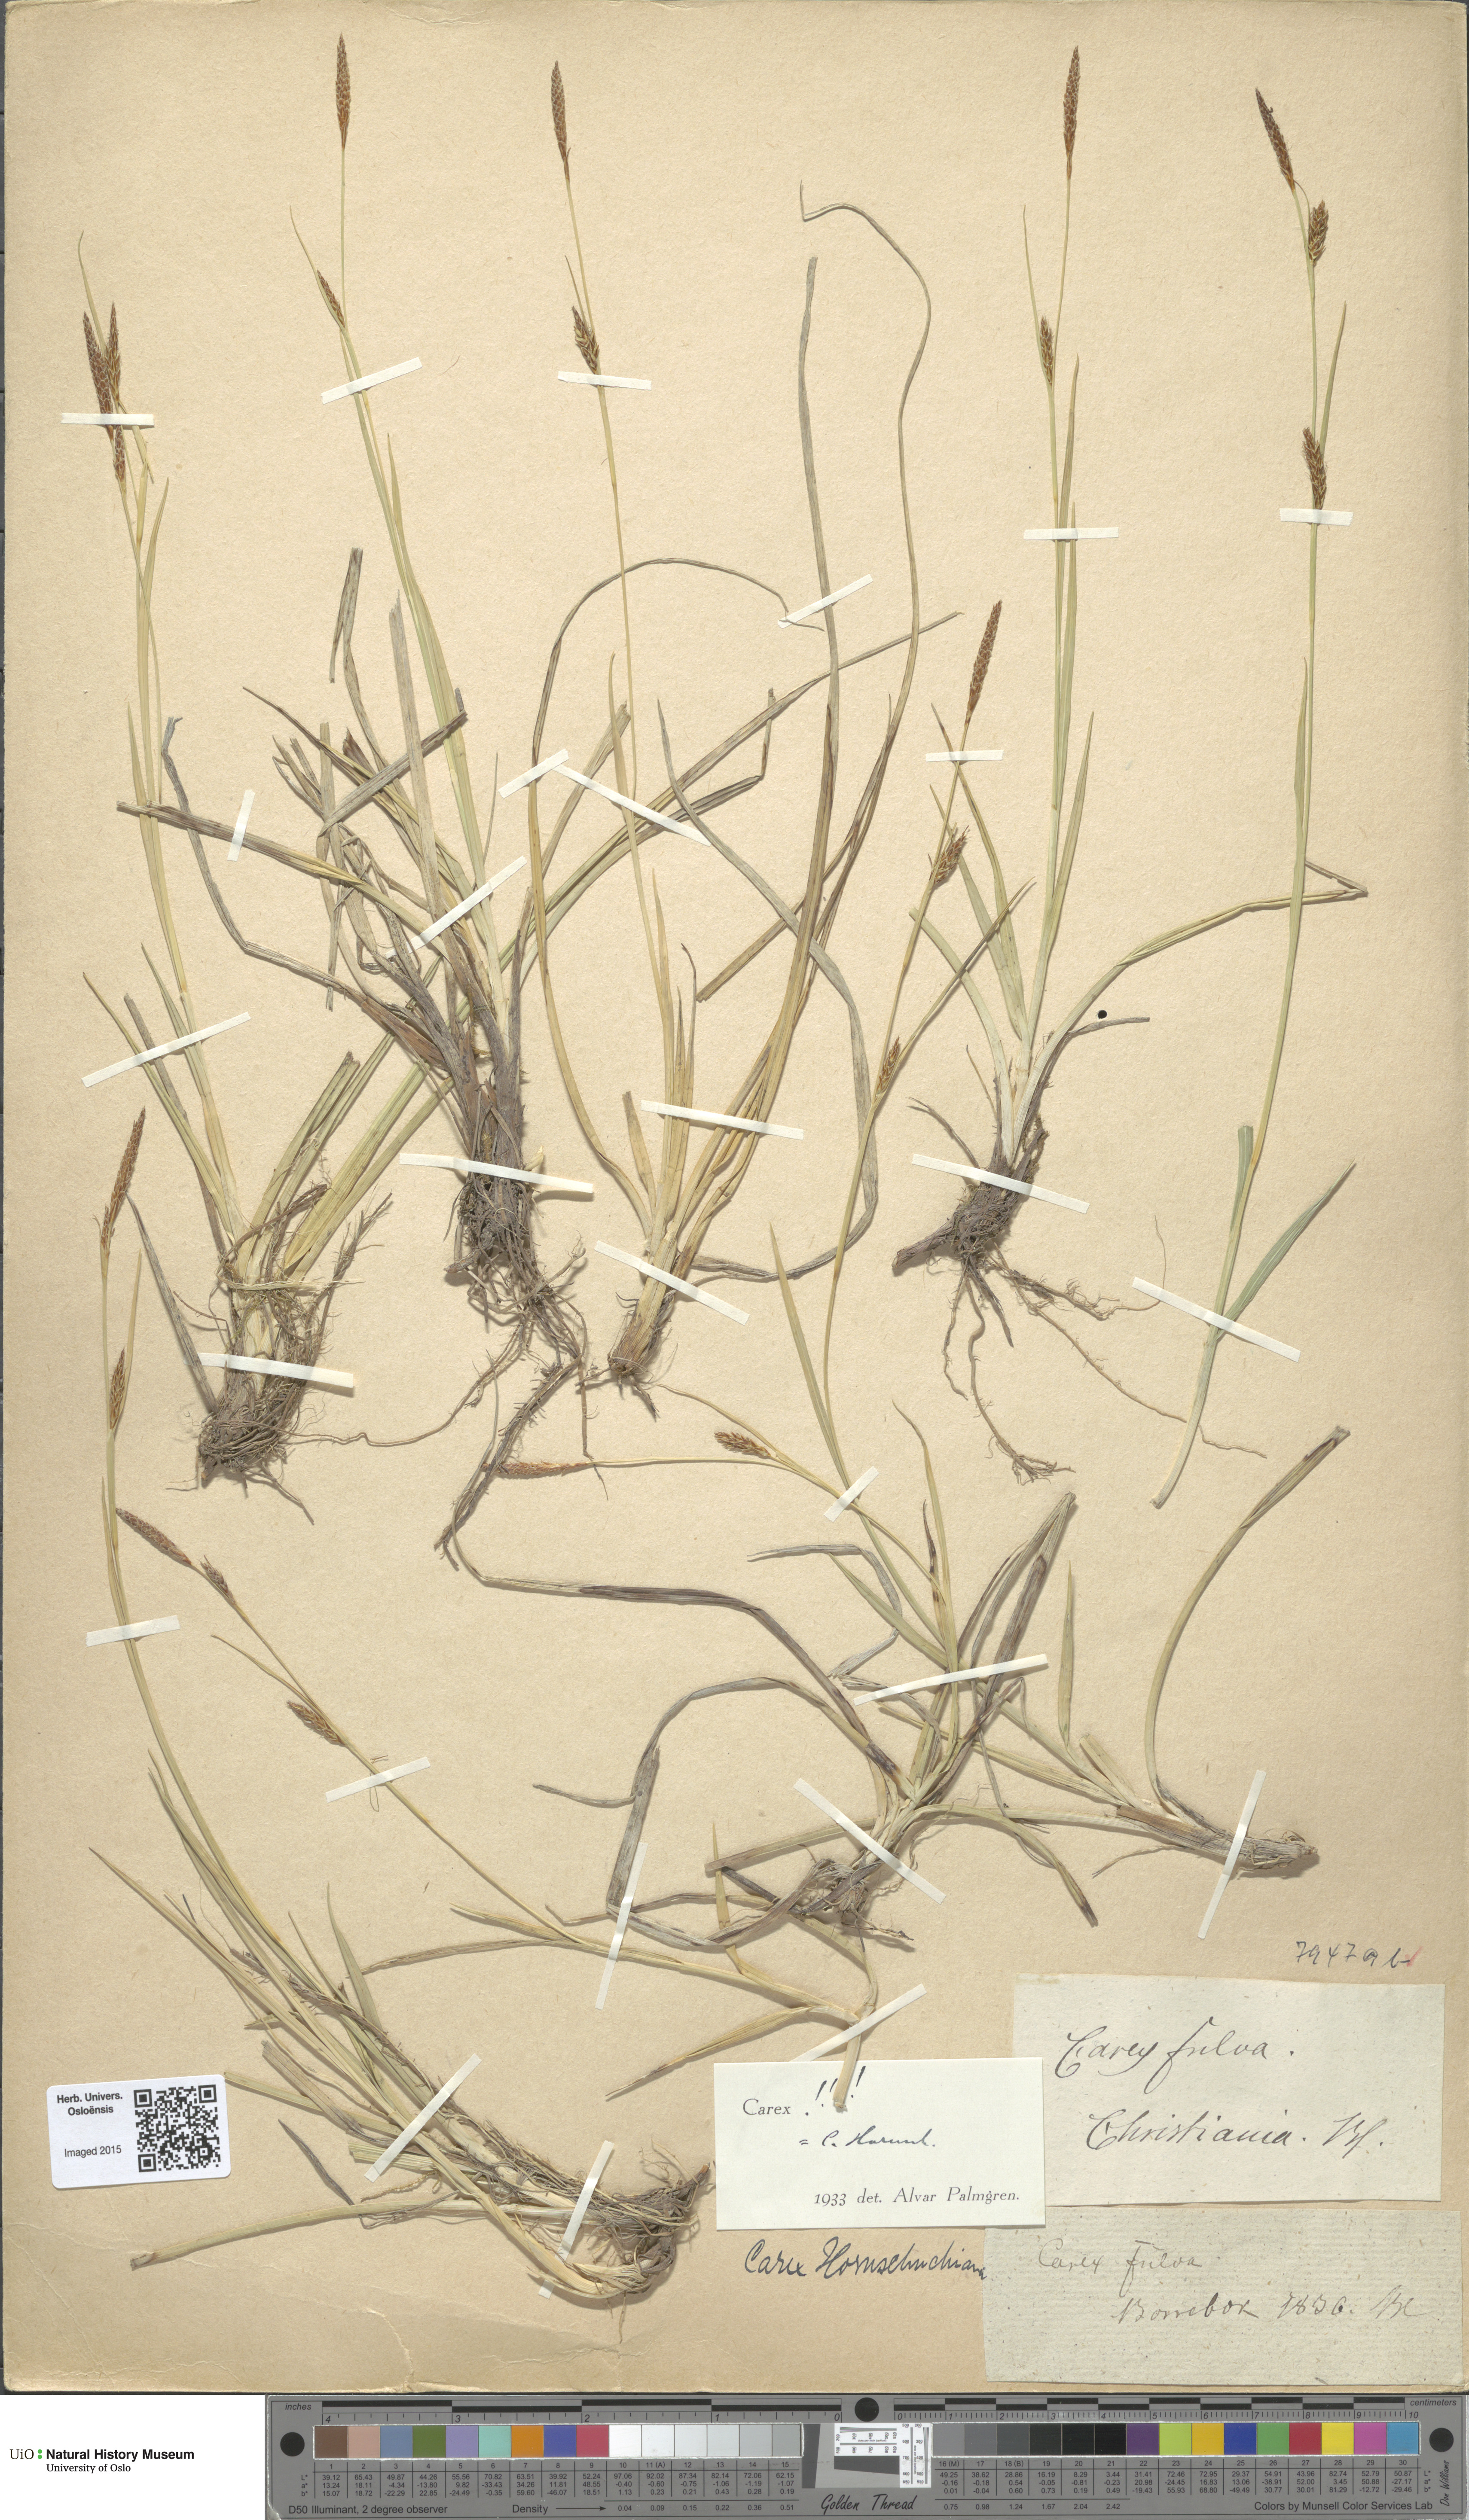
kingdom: Plantae
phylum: Tracheophyta
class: Liliopsida
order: Poales
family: Cyperaceae
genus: Carex
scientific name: Carex hostiana
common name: Tawny sedge
